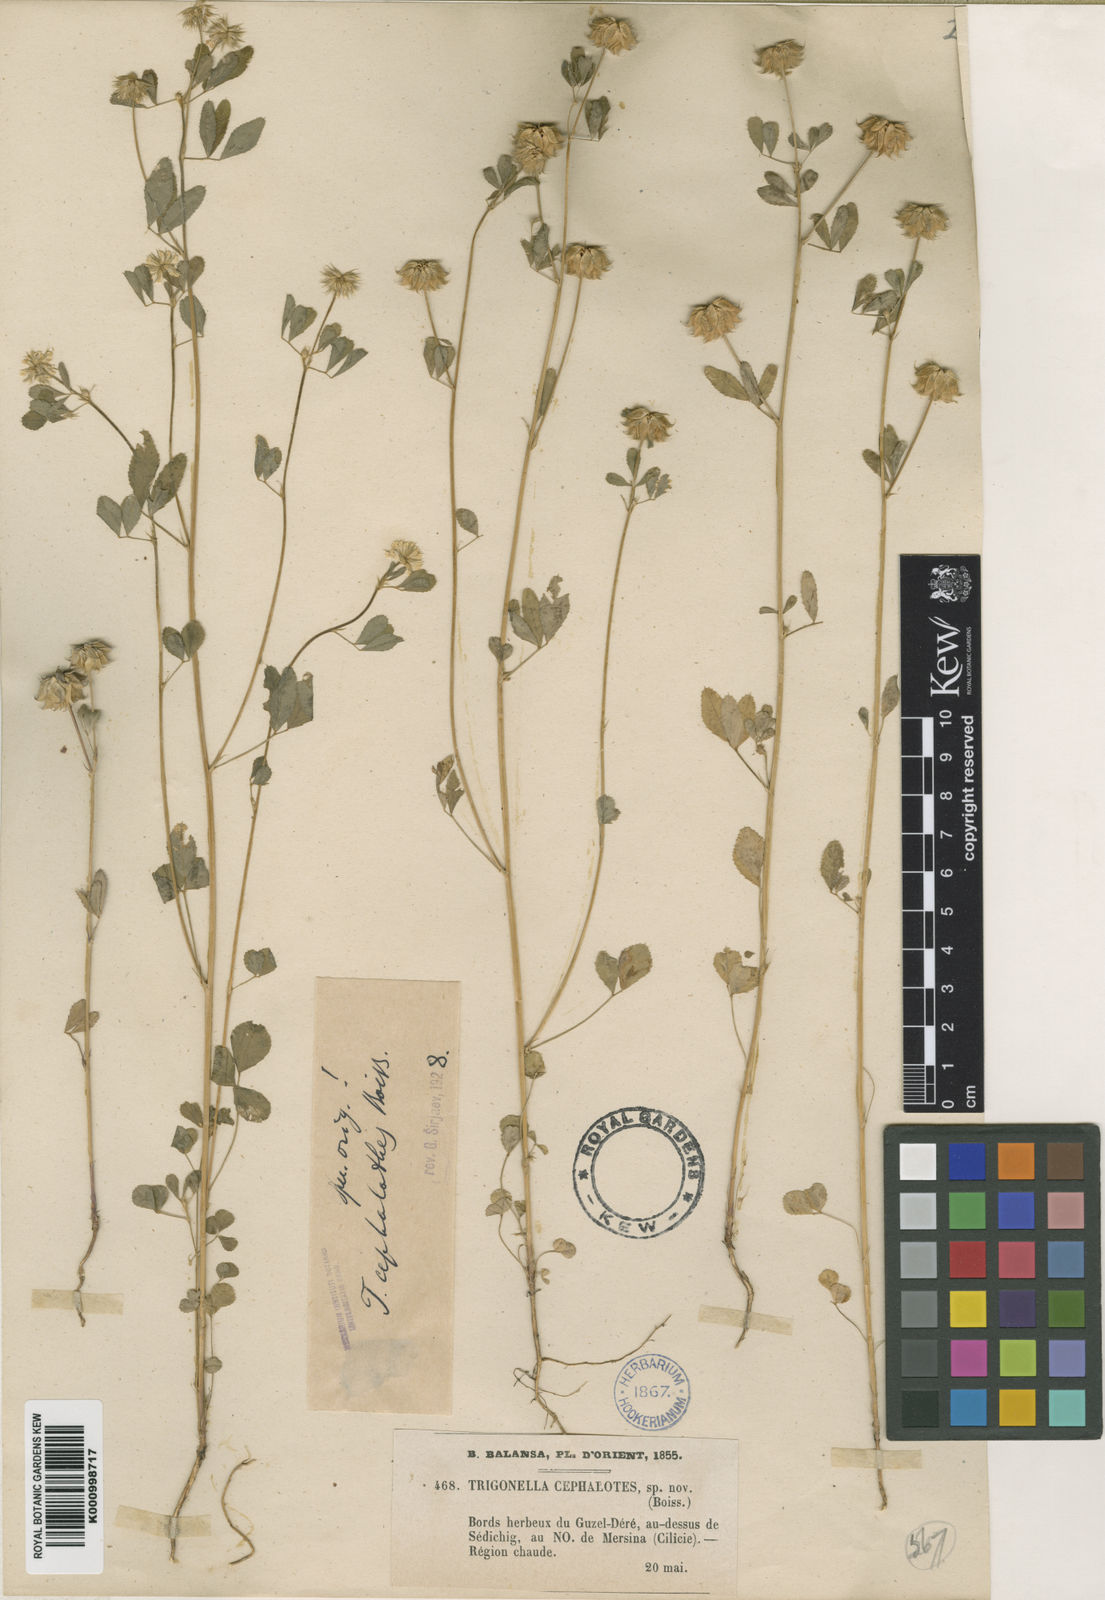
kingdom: Plantae
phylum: Tracheophyta
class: Magnoliopsida
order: Fabales
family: Fabaceae
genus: Trigonella
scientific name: Trigonella cephalotes
